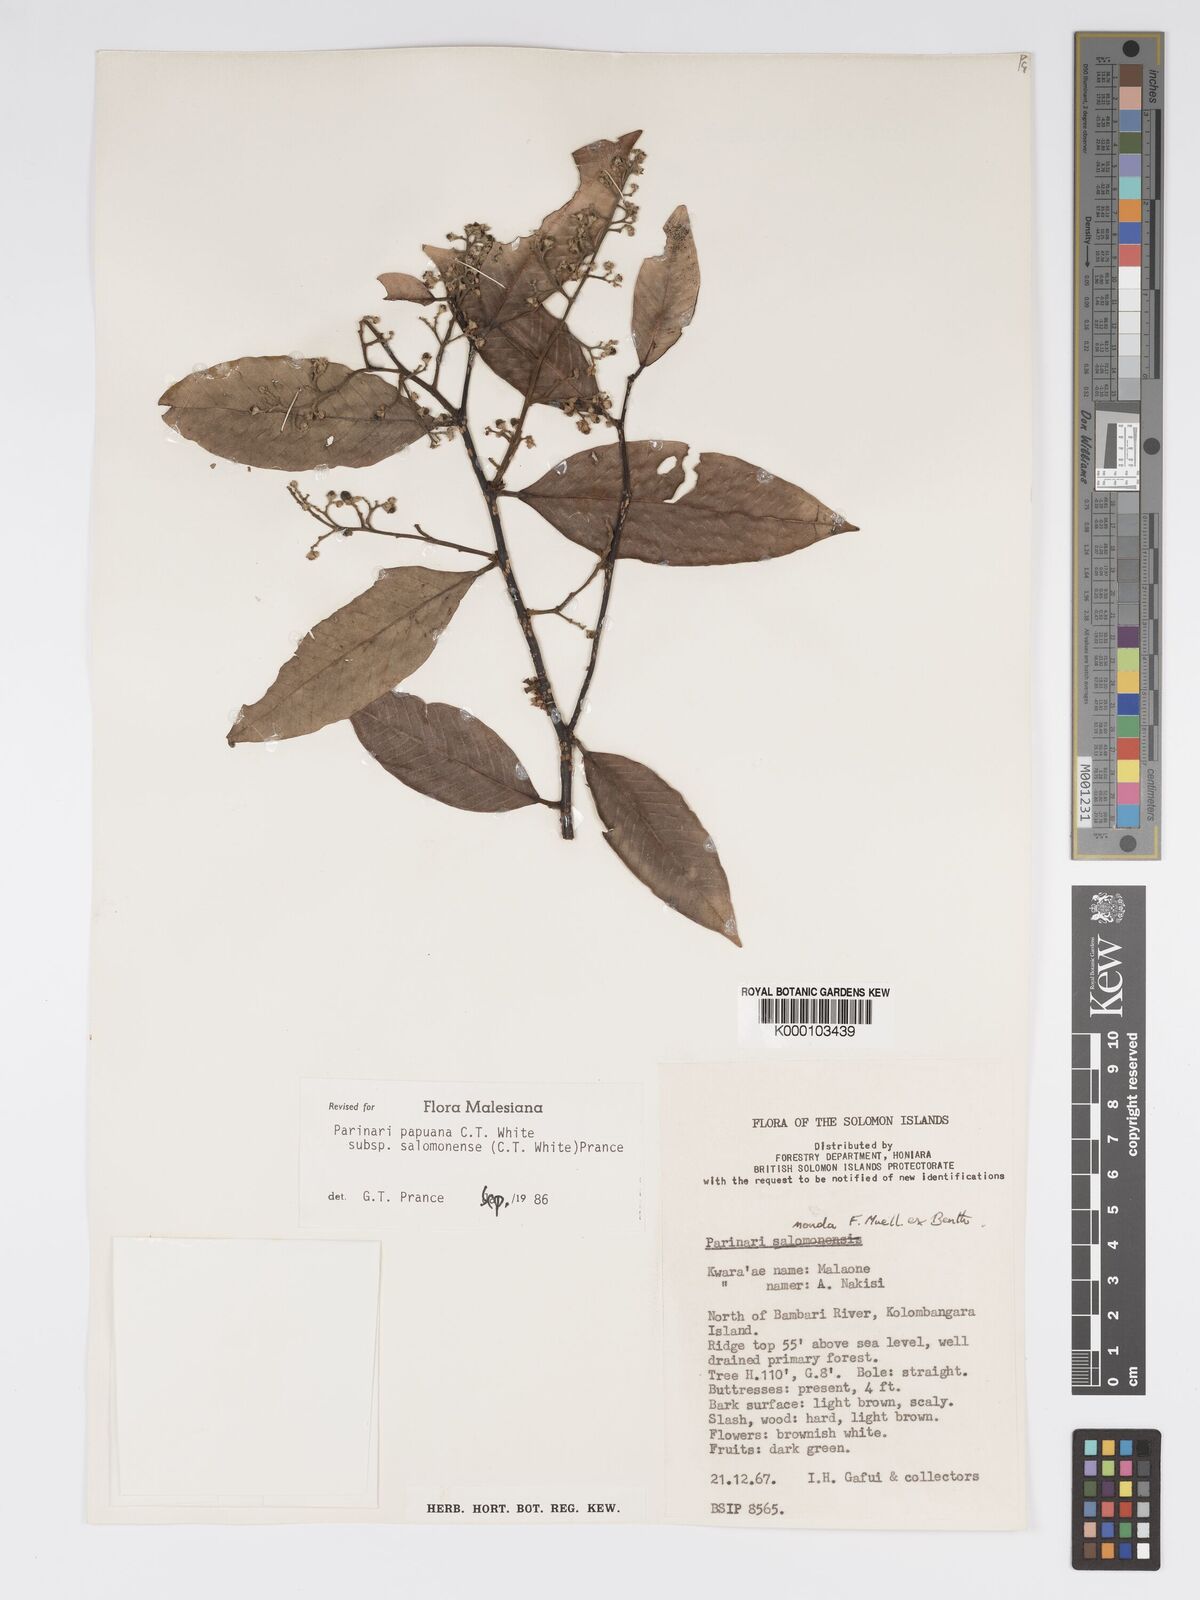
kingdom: Plantae
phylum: Tracheophyta
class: Magnoliopsida
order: Malpighiales
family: Chrysobalanaceae
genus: Parinari
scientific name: Parinari papuana
